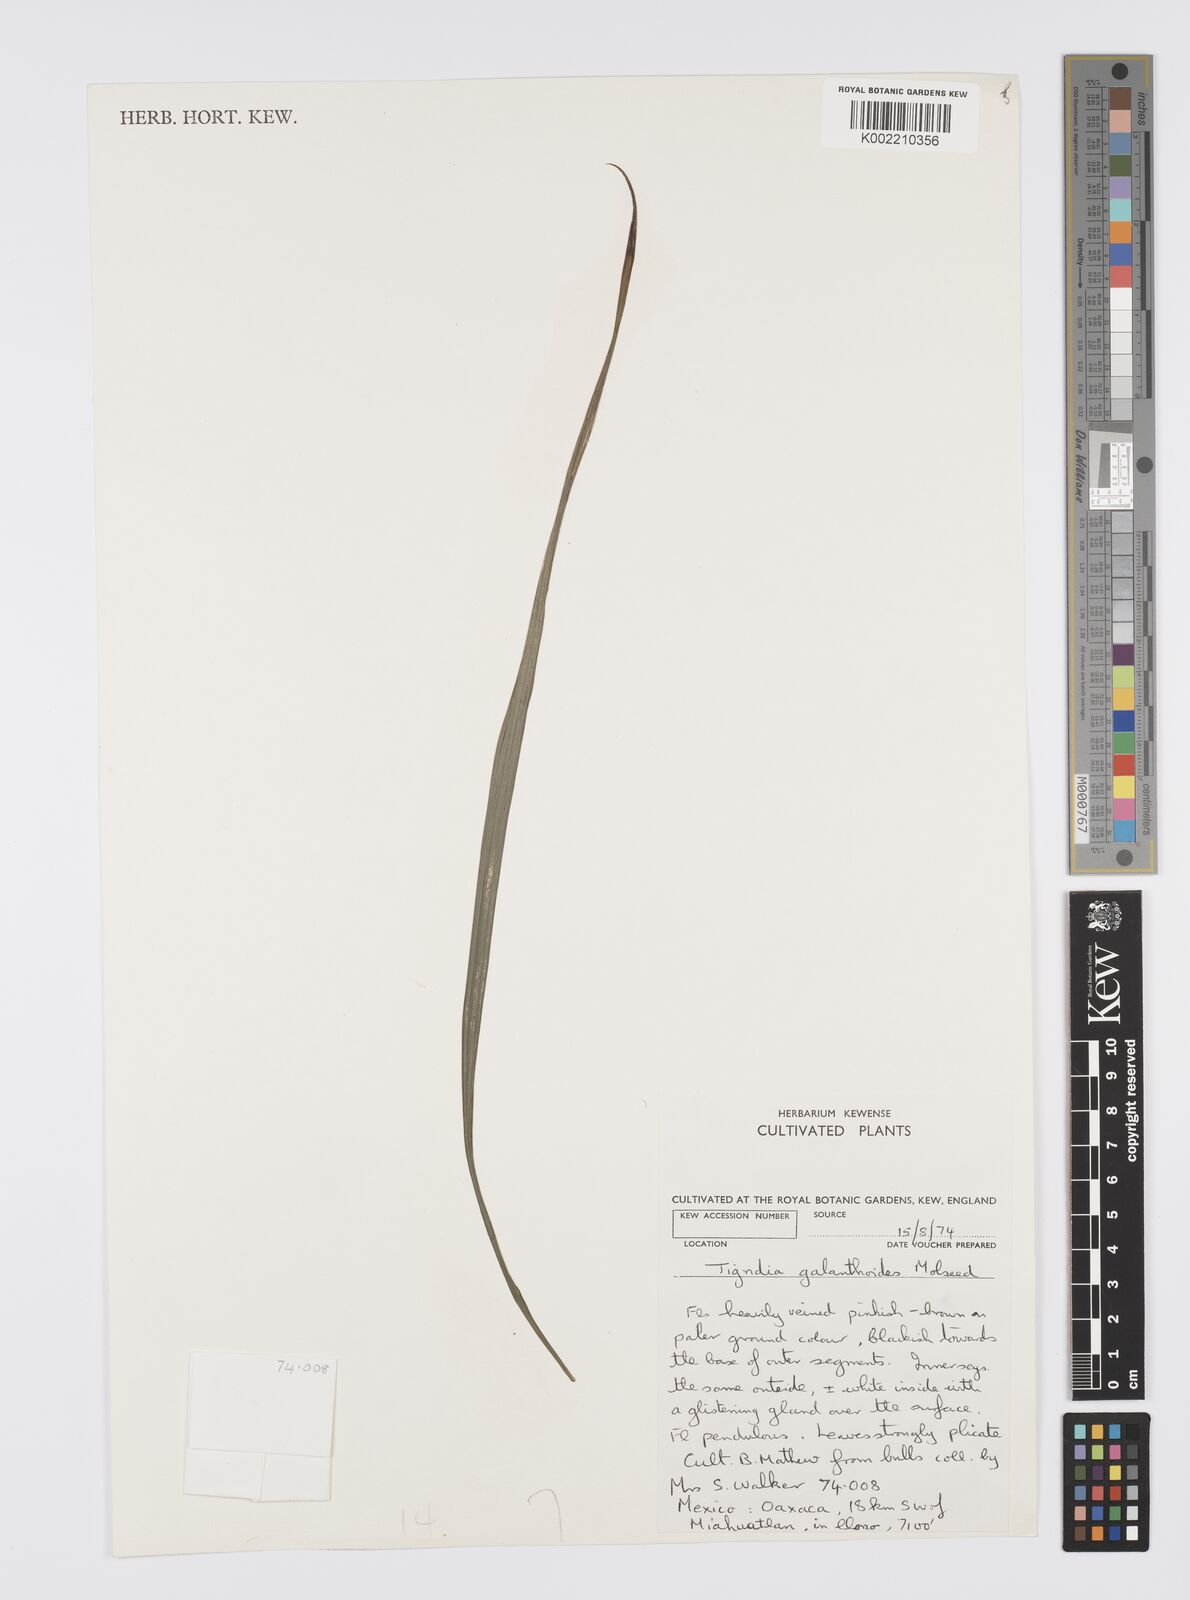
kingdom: Plantae
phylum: Tracheophyta
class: Liliopsida
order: Asparagales
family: Iridaceae
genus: Tigridia
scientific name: Tigridia galanthoides
